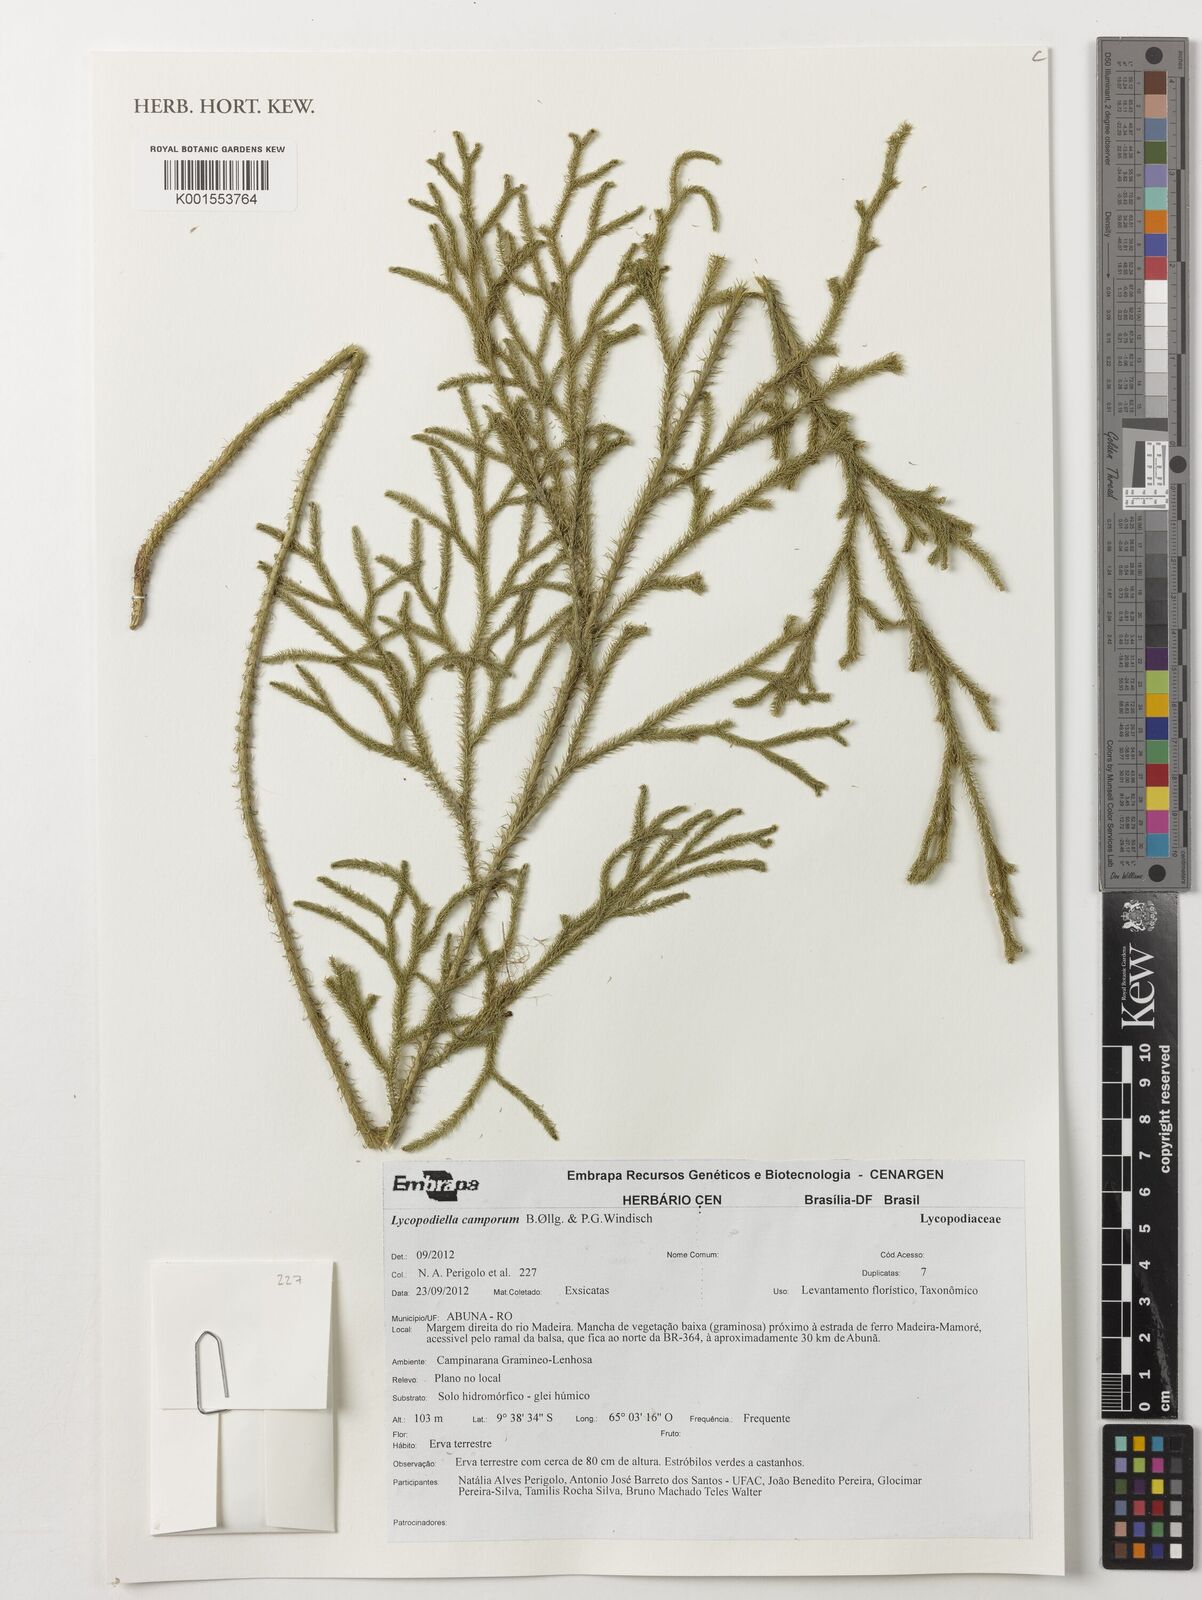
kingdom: Plantae
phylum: Tracheophyta
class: Lycopodiopsida
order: Lycopodiales
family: Lycopodiaceae
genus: Palhinhaea
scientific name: Palhinhaea camporum
